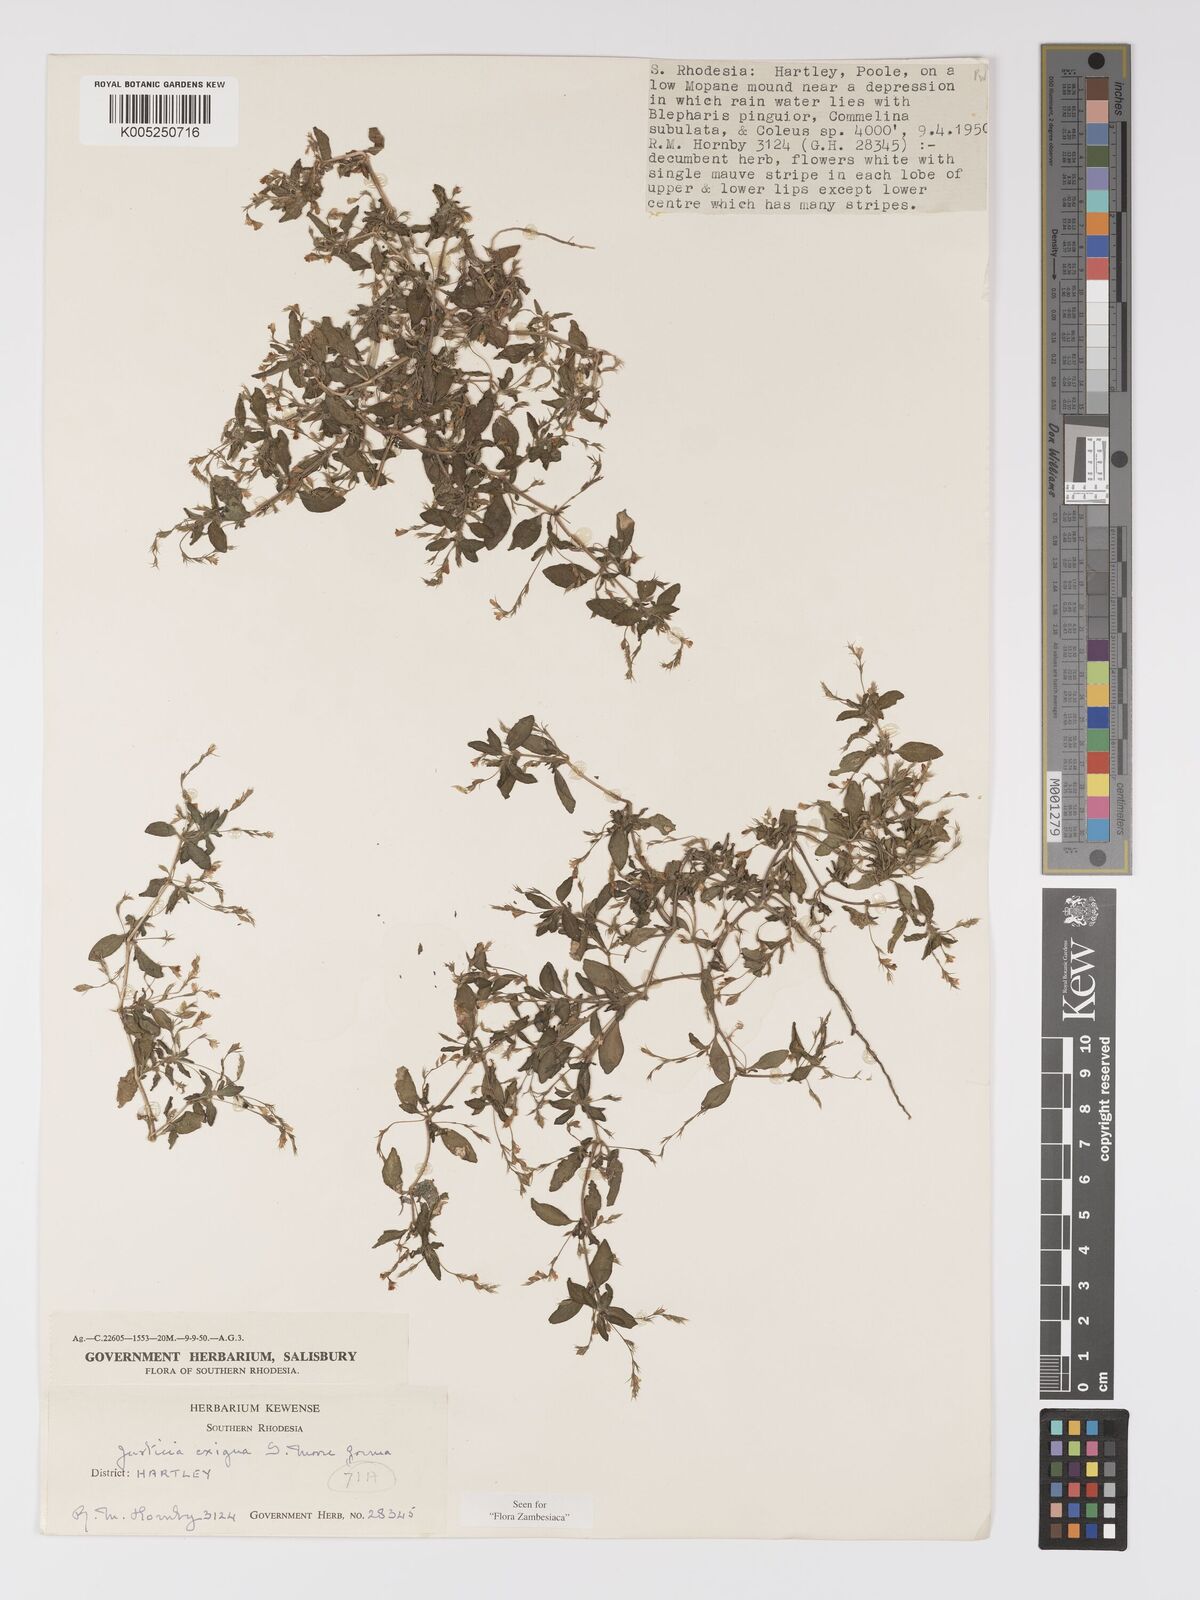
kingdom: Plantae
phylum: Tracheophyta
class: Magnoliopsida
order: Lamiales
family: Acanthaceae
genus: Justicia
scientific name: Justicia exigua
